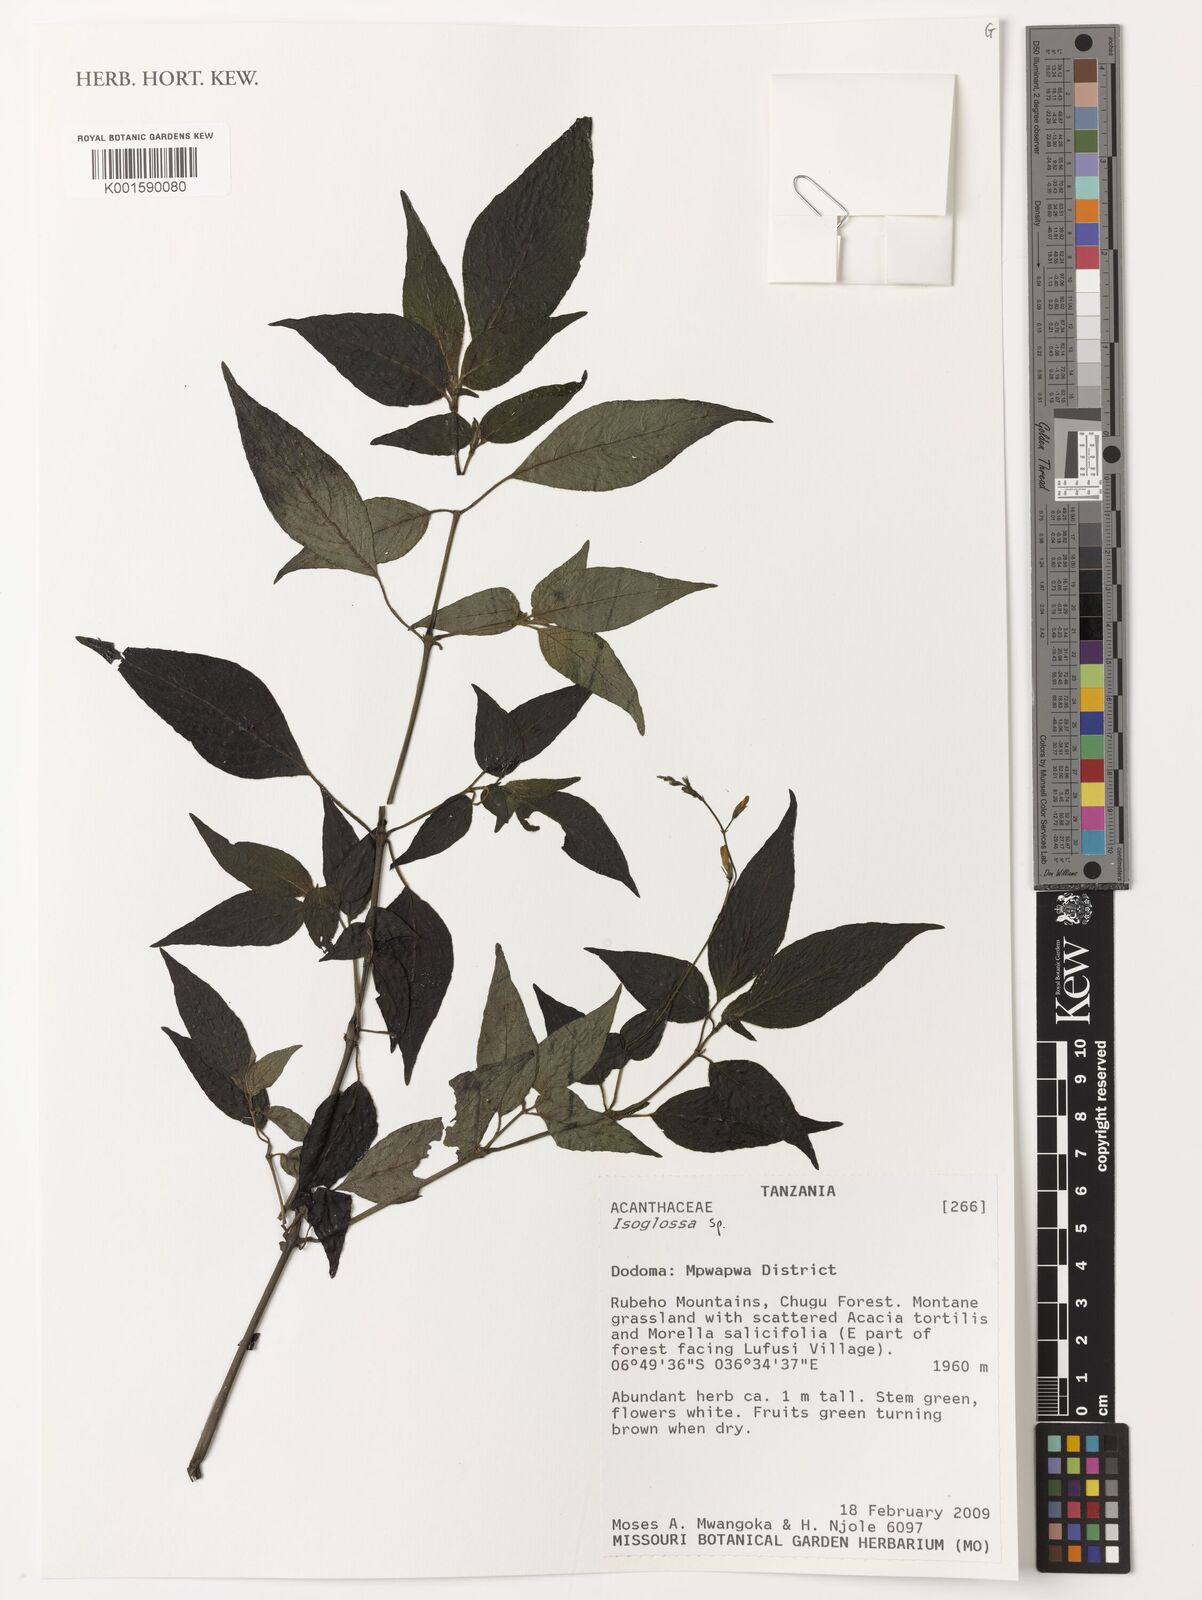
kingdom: Plantae
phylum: Tracheophyta
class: Magnoliopsida
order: Lamiales
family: Acanthaceae
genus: Isoglossa
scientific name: Isoglossa
